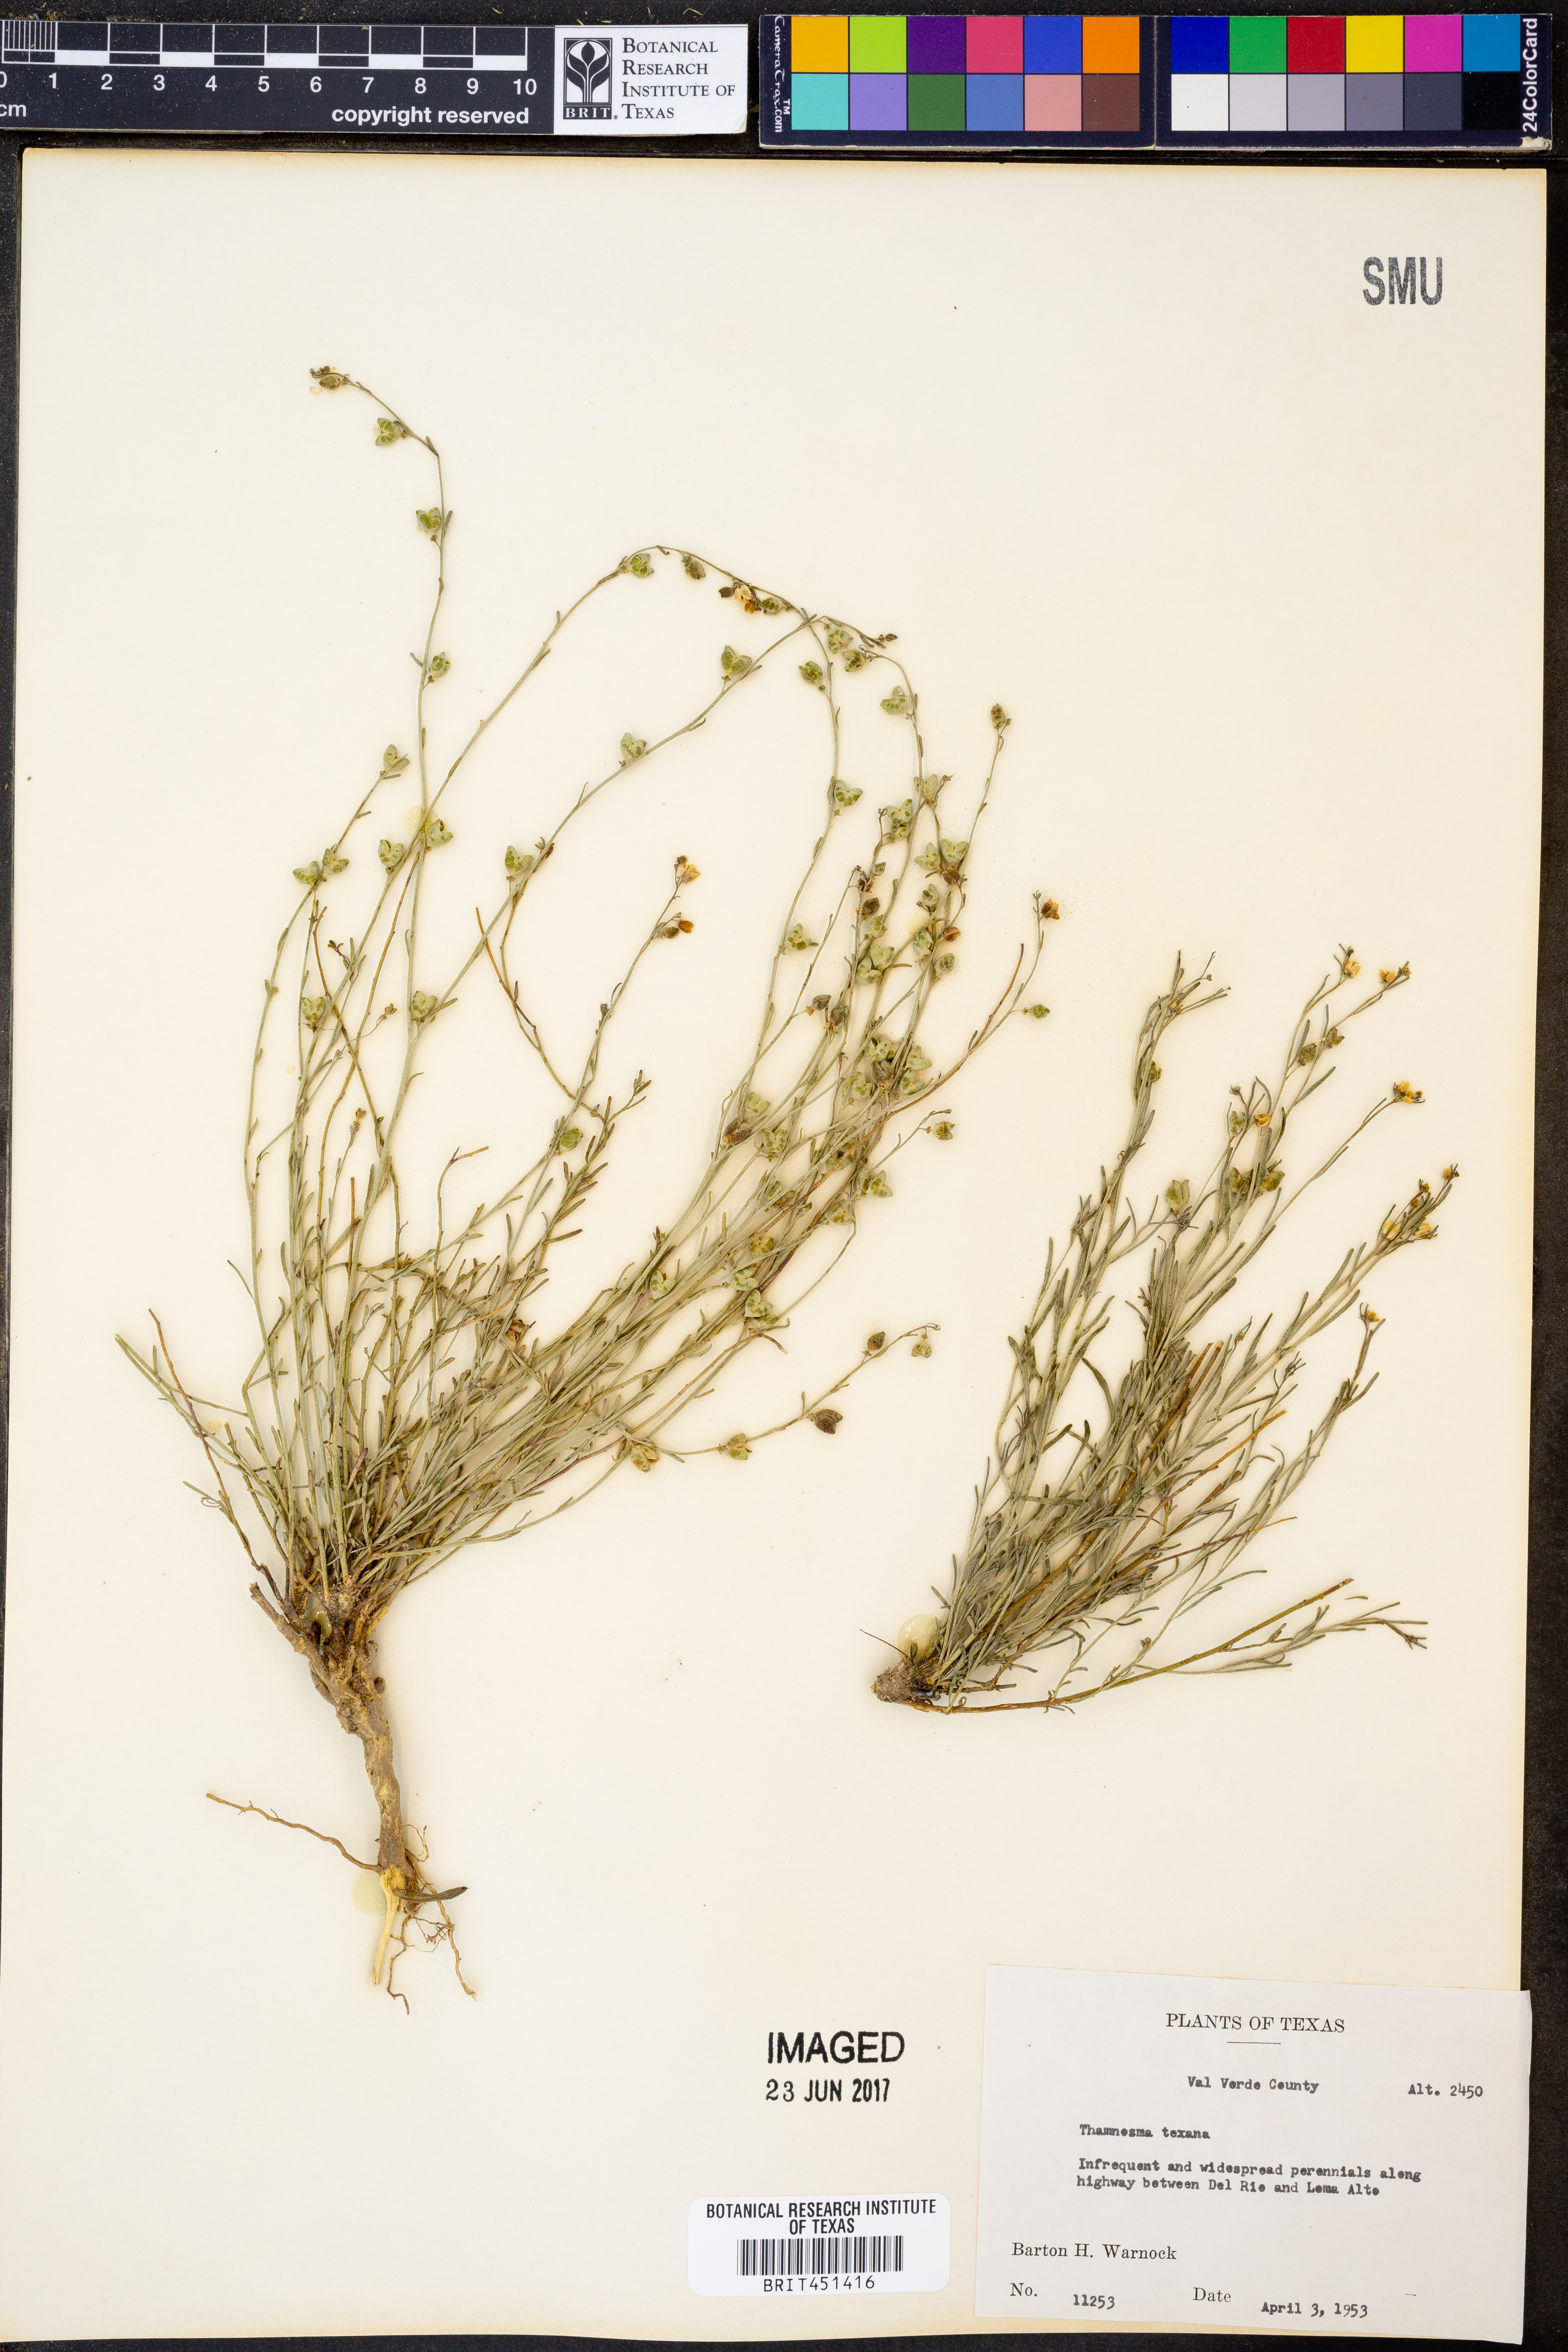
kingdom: Plantae
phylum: Tracheophyta
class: Magnoliopsida
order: Sapindales
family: Rutaceae
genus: Thamnosma
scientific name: Thamnosma texana
